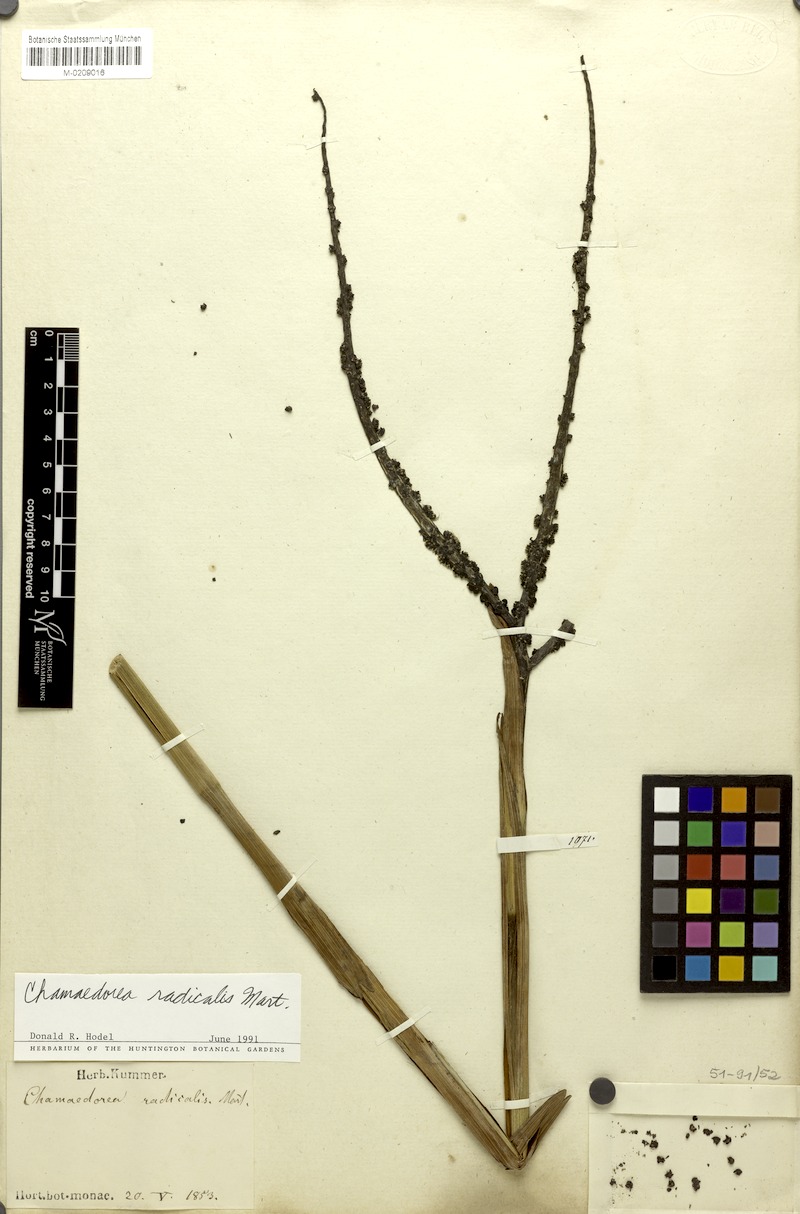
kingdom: Plantae
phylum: Tracheophyta
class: Liliopsida
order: Arecales
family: Arecaceae
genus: Chamaedorea
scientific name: Chamaedorea radicalis
